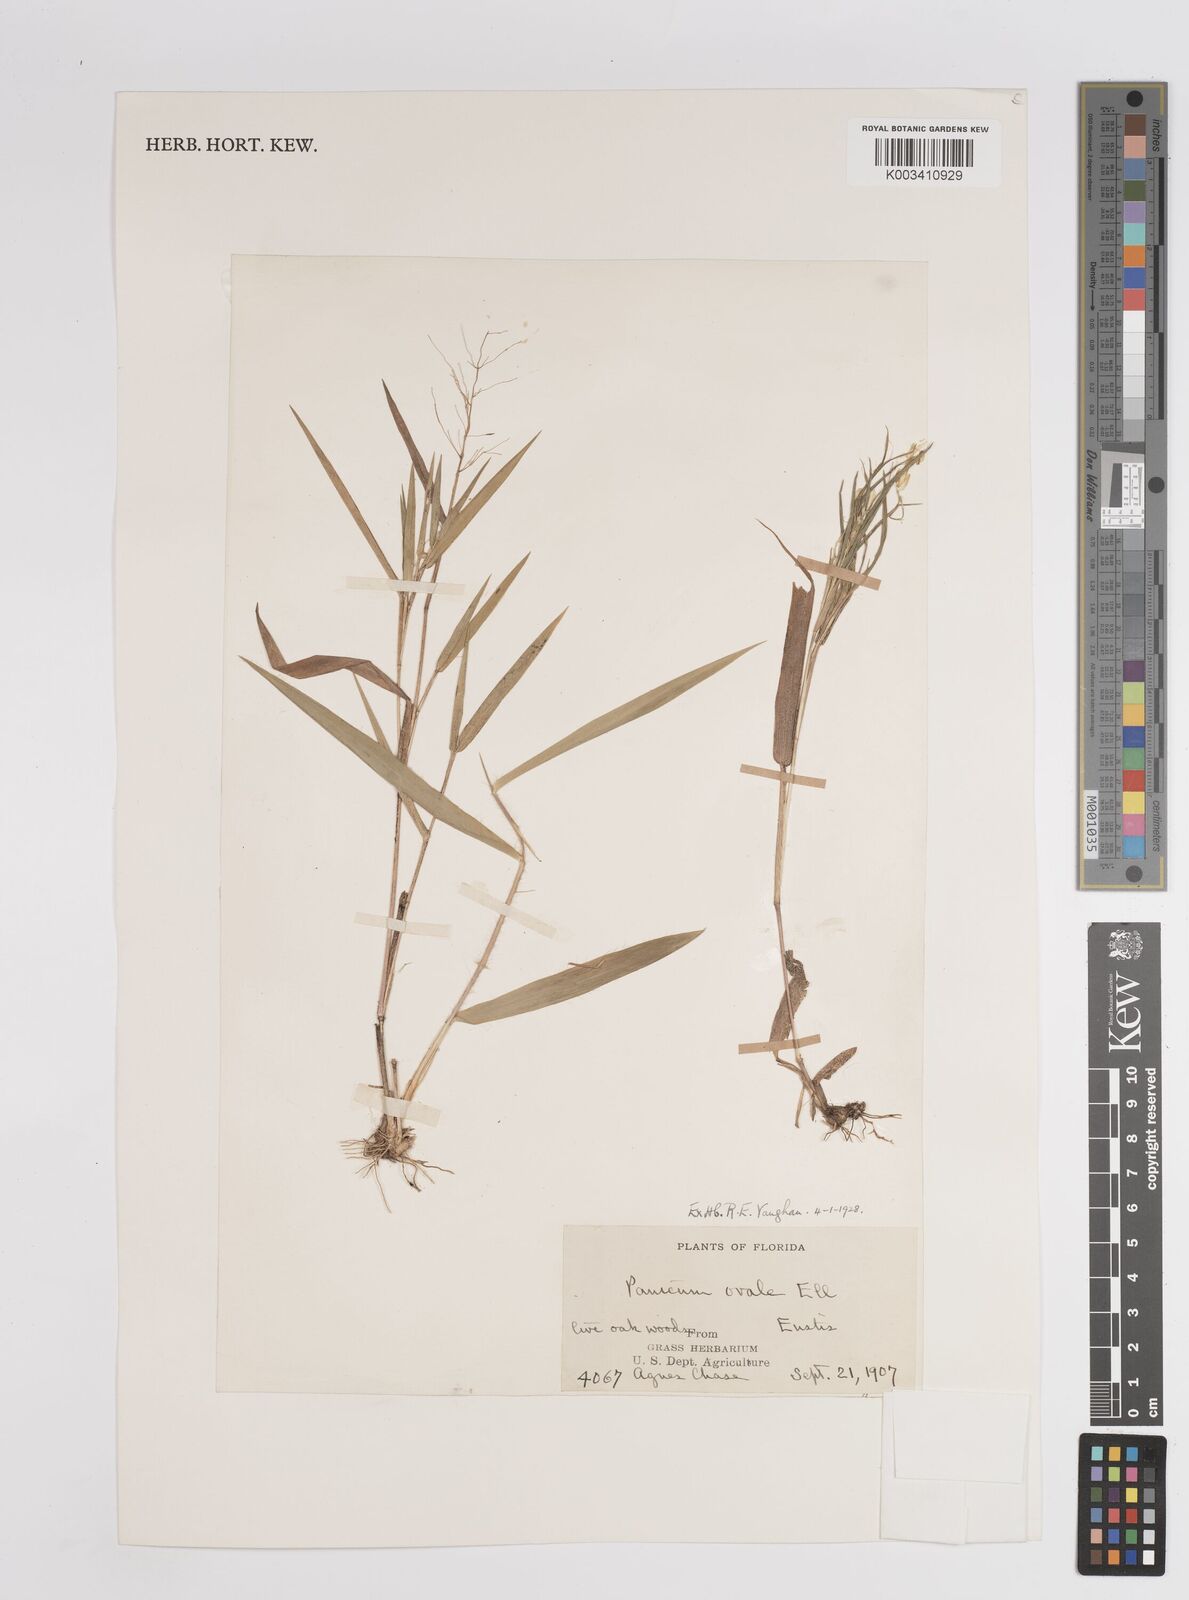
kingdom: Plantae
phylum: Tracheophyta
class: Liliopsida
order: Poales
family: Poaceae
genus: Dichanthelium
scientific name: Dichanthelium ovale
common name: Stiff-leaved panicgrass
